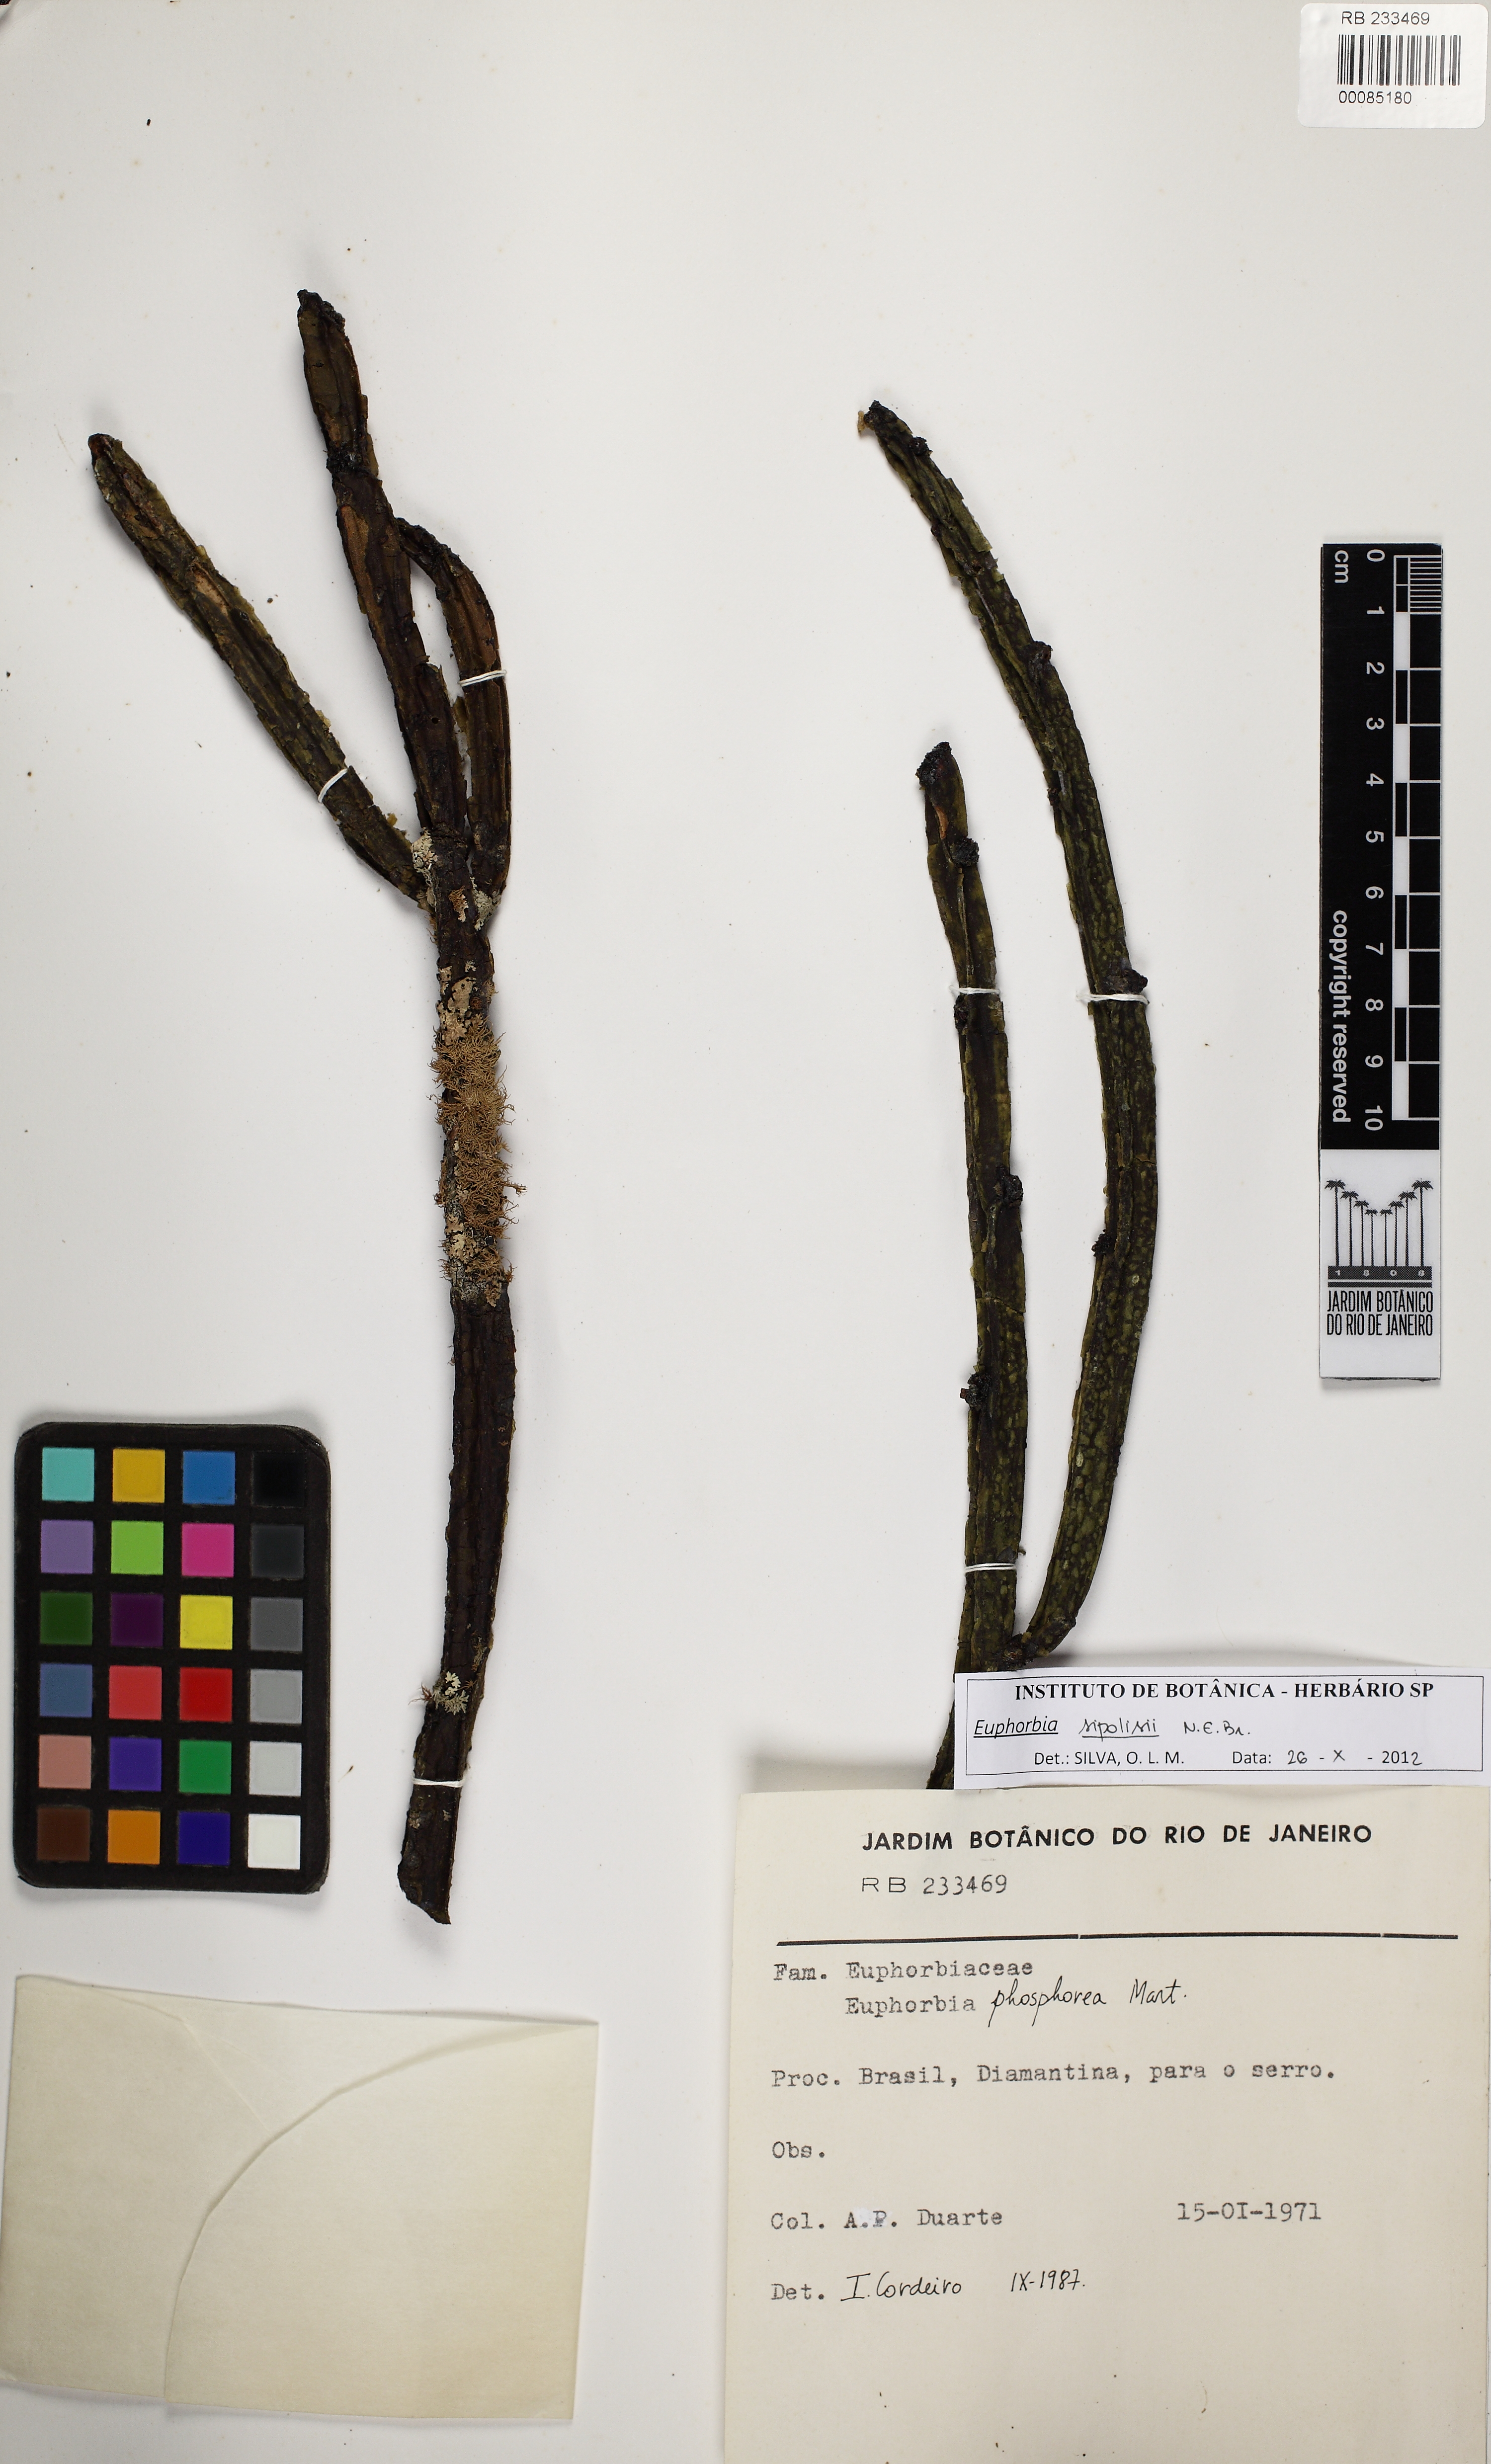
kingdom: Plantae
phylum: Tracheophyta
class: Magnoliopsida
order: Malpighiales
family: Euphorbiaceae
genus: Euphorbia
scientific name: Euphorbia sipolisii
